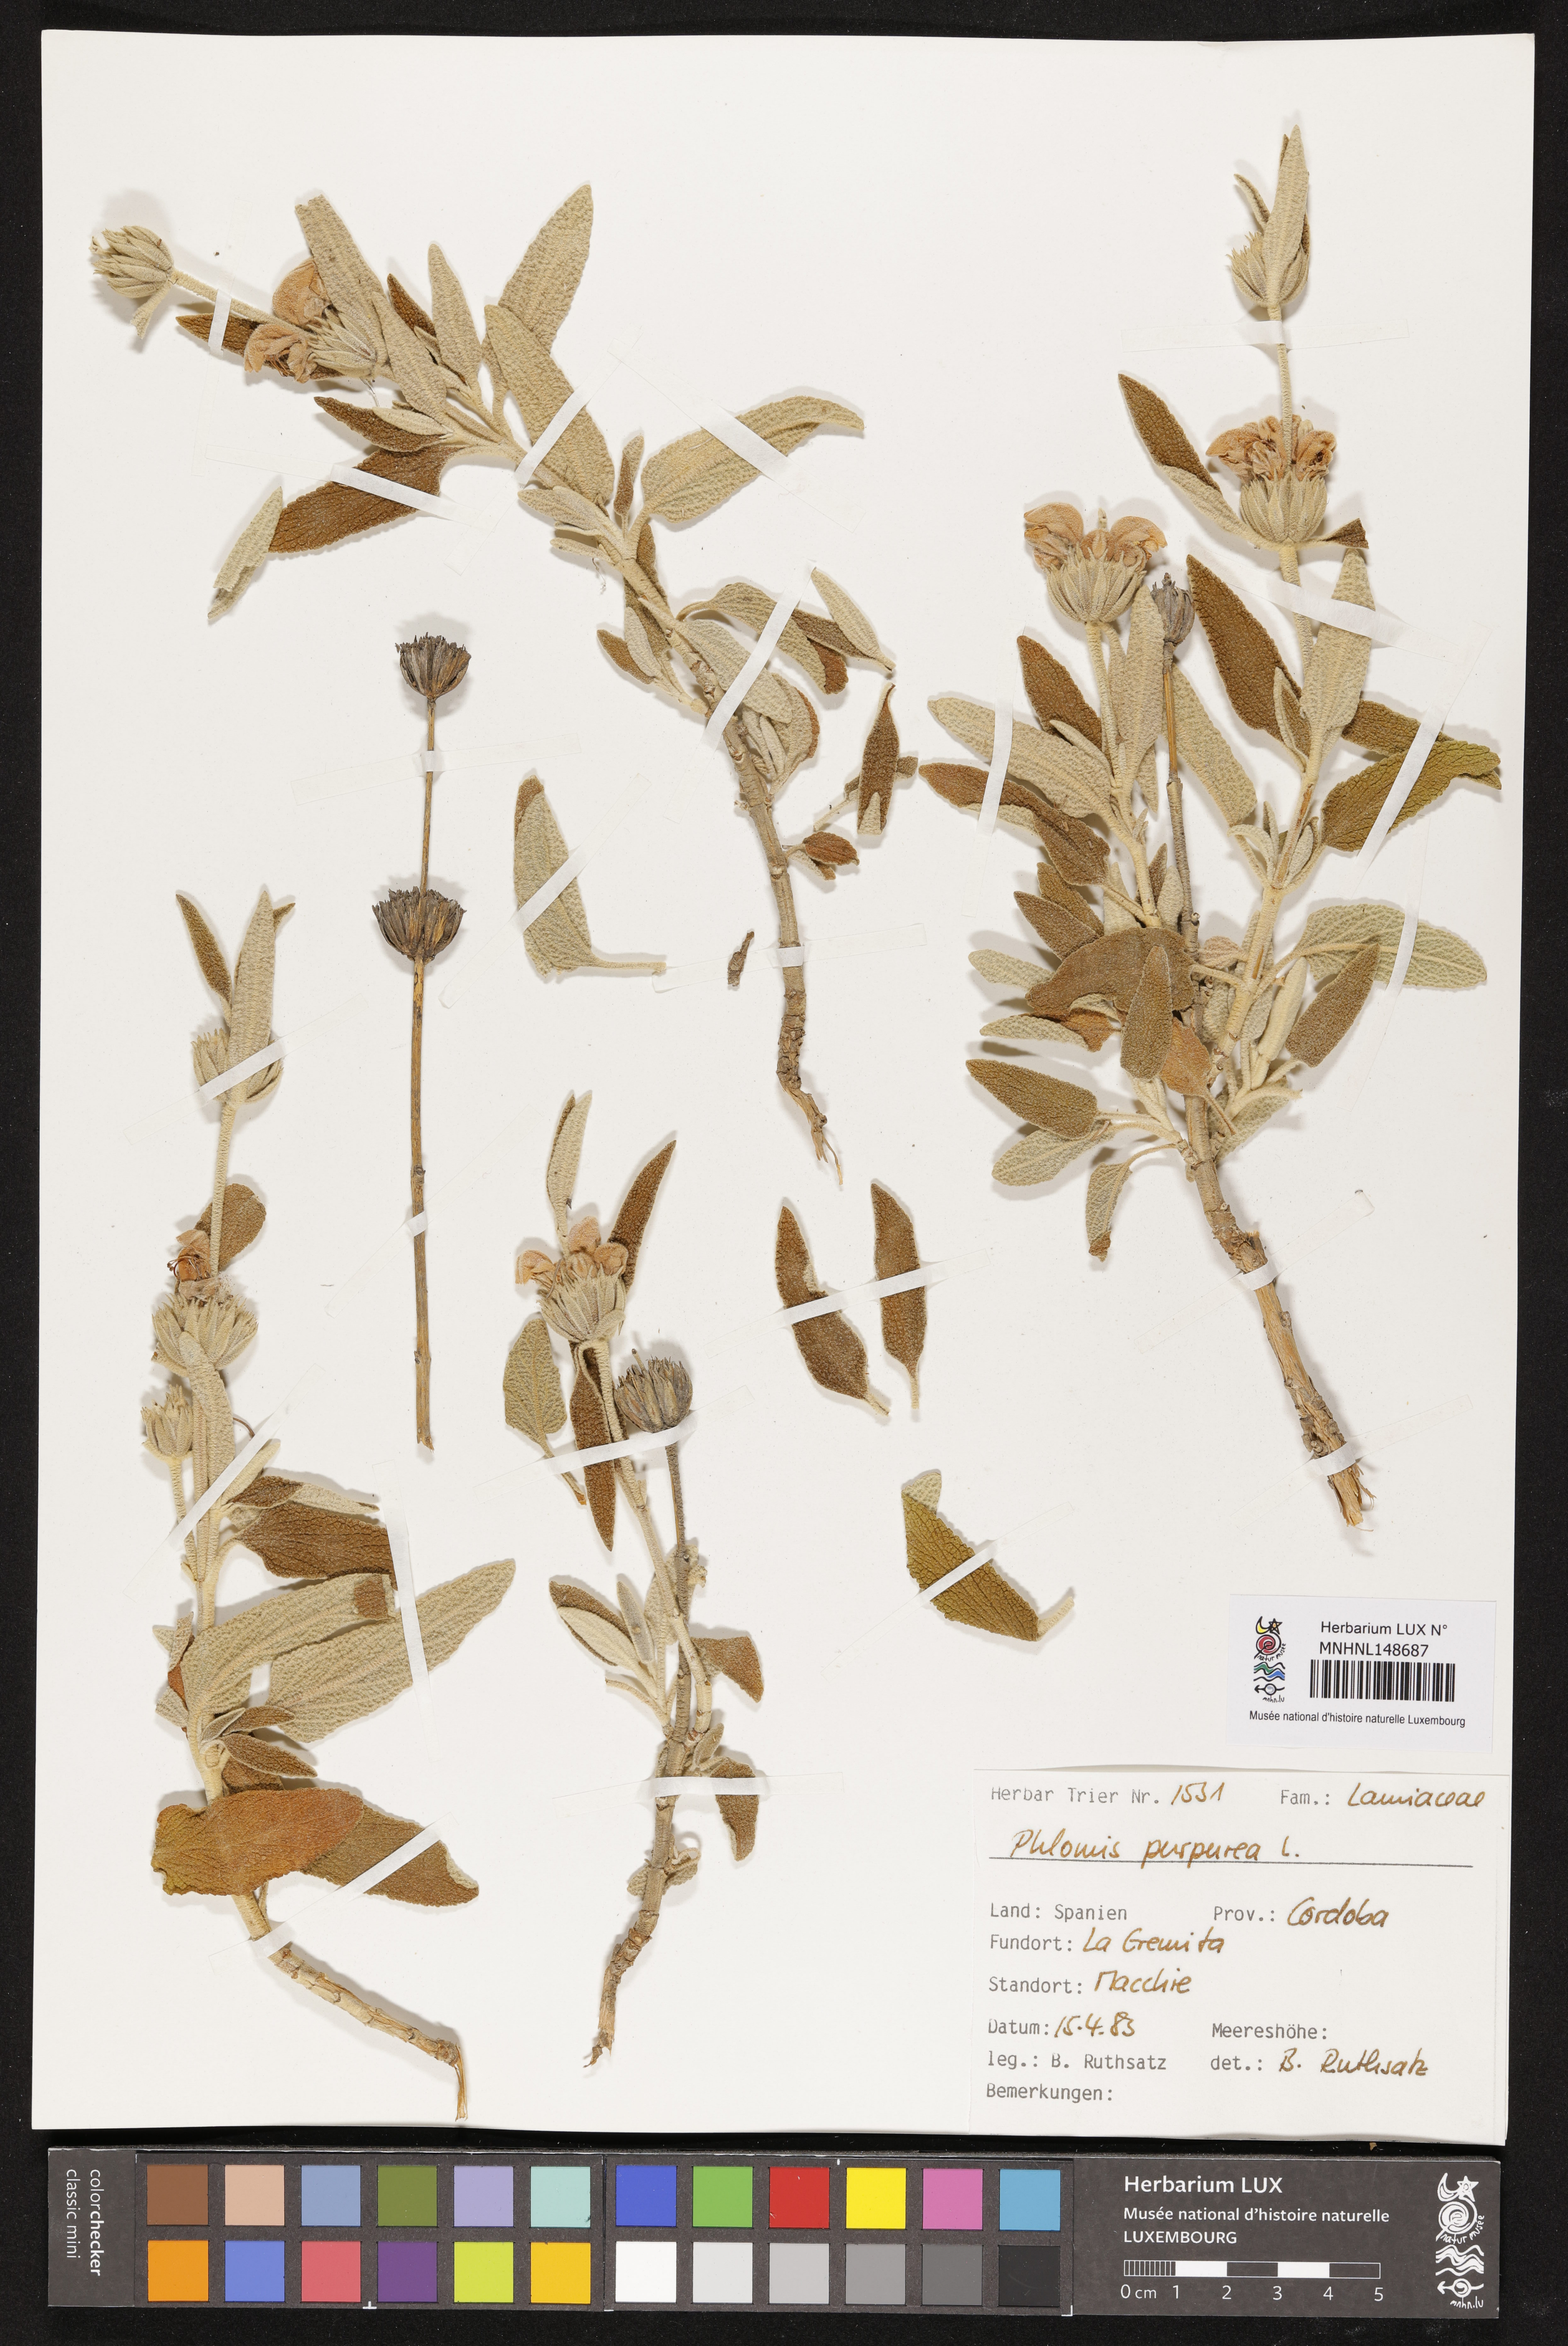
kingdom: Plantae
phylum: Tracheophyta
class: Magnoliopsida
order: Lamiales
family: Lamiaceae
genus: Phlomis
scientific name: Phlomis purpurea
